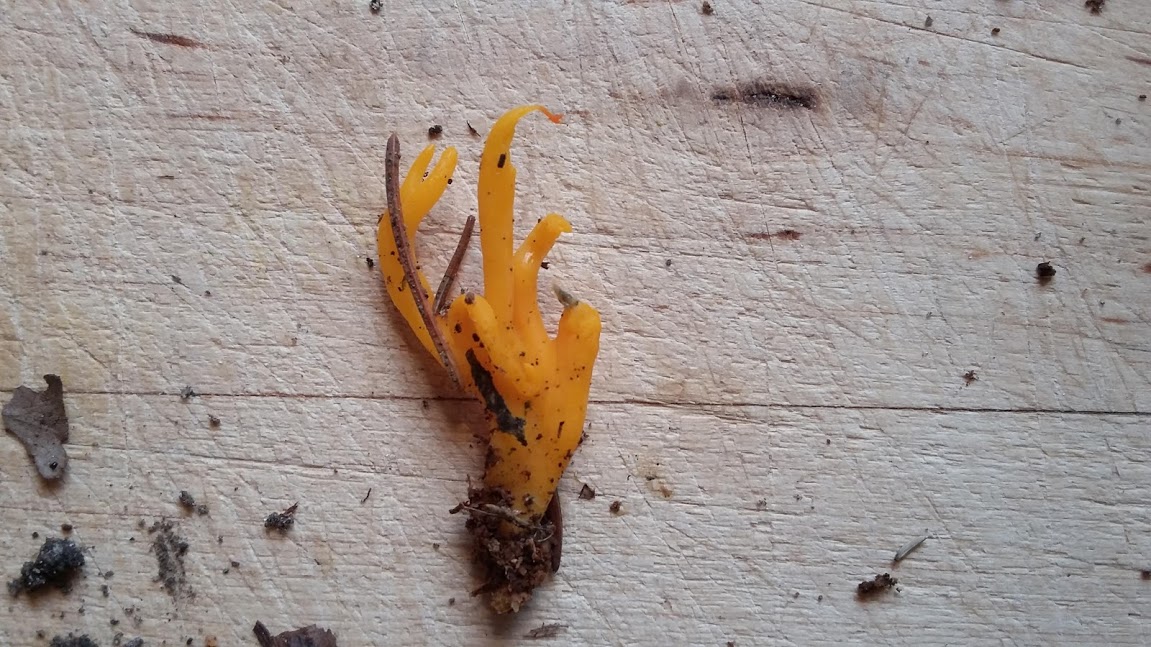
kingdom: Fungi
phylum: Basidiomycota
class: Dacrymycetes
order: Dacrymycetales
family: Dacrymycetaceae
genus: Calocera
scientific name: Calocera viscosa
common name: almindelig guldgaffel
